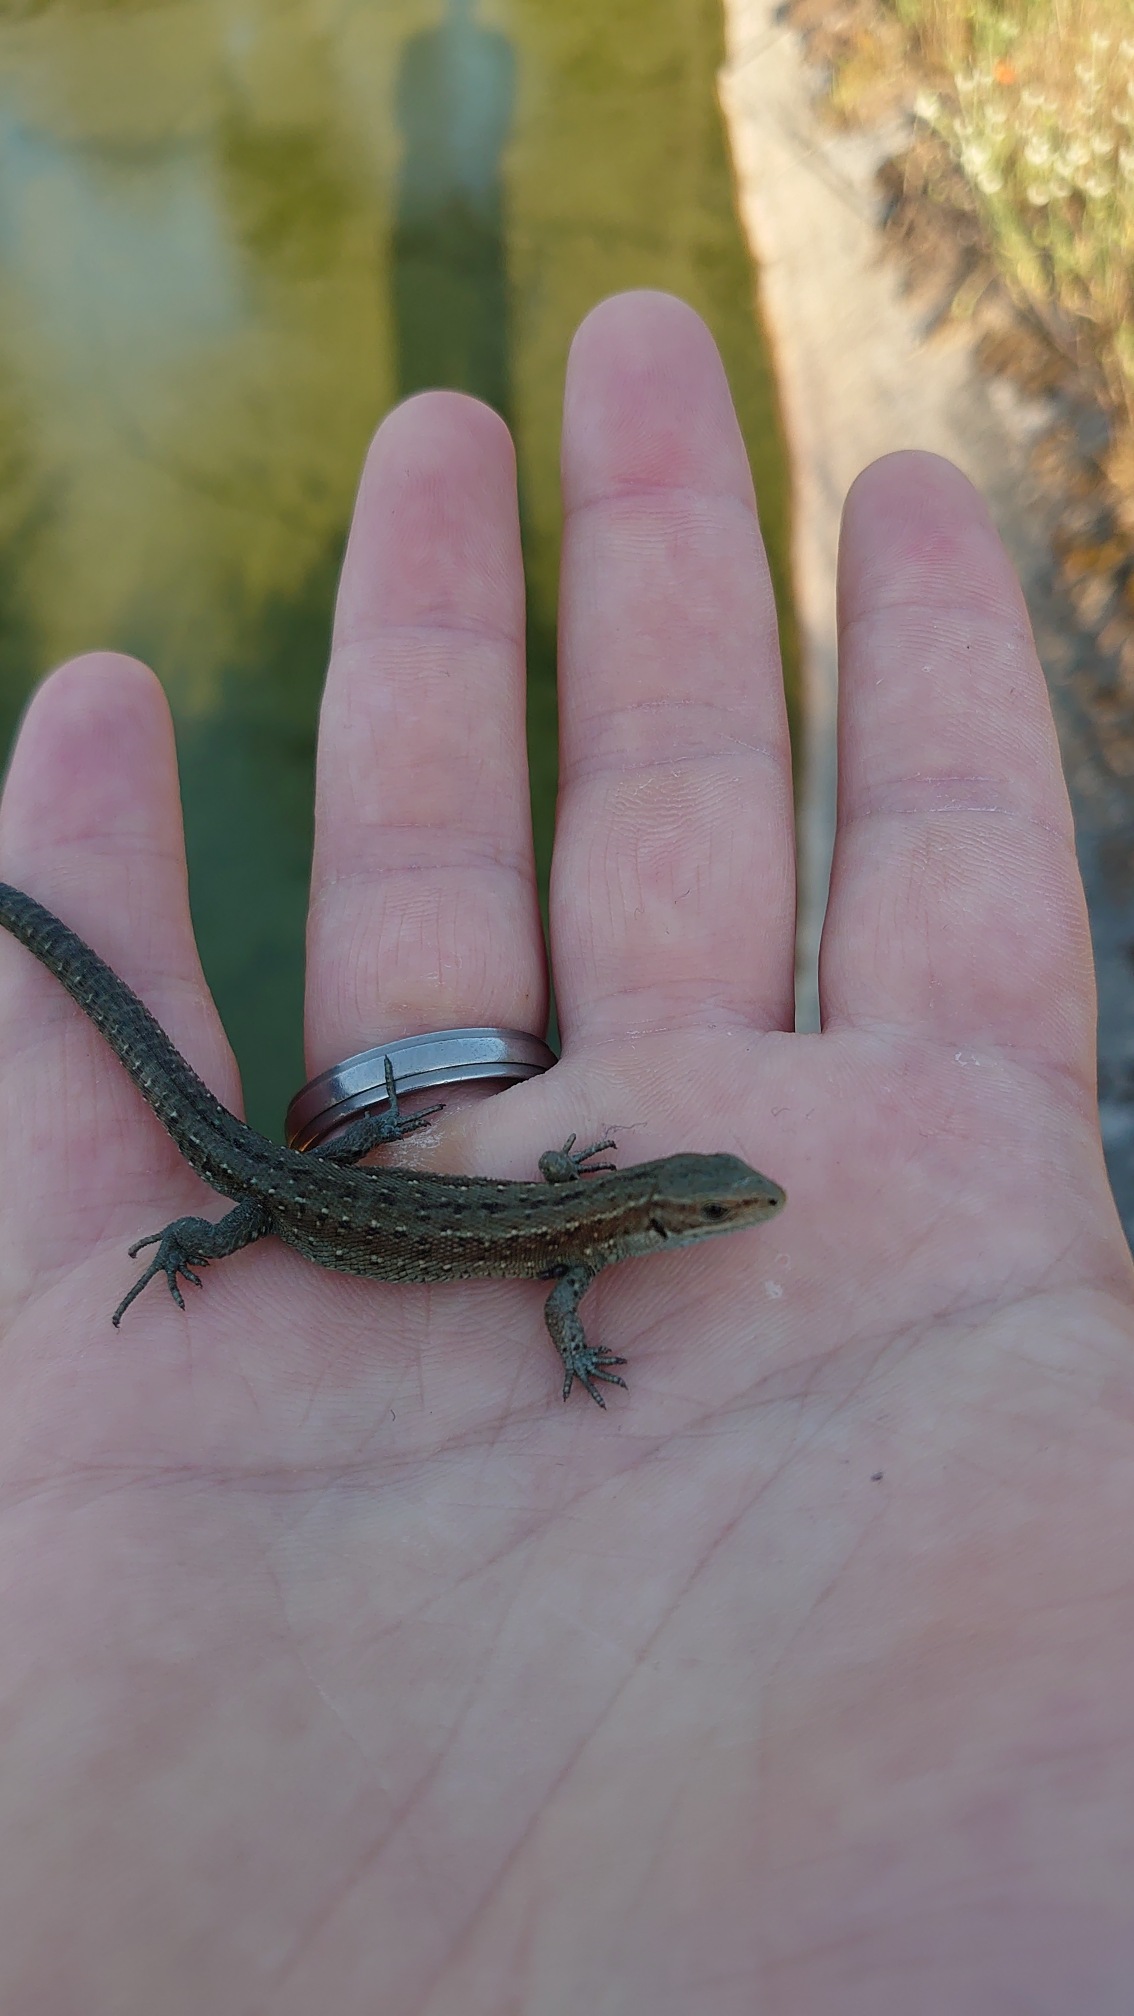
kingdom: Animalia
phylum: Chordata
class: Squamata
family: Lacertidae
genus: Zootoca
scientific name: Zootoca vivipara
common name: Skovfirben
